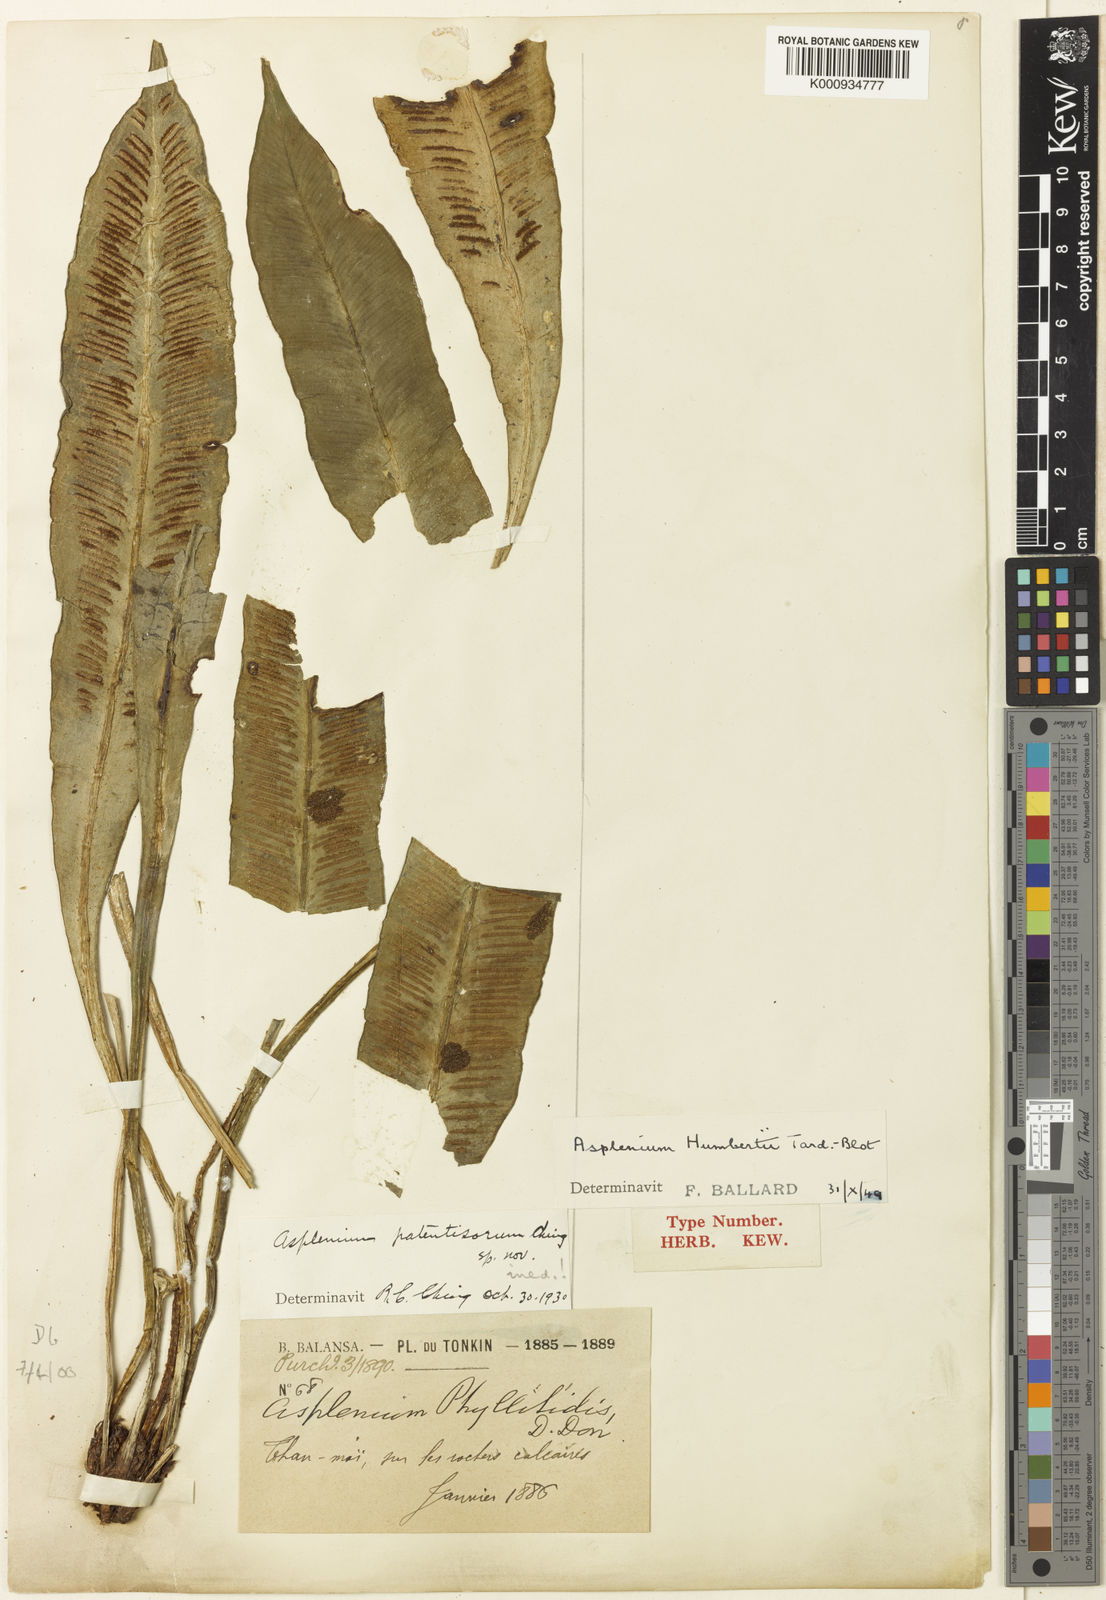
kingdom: Plantae
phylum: Tracheophyta
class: Polypodiopsida
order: Polypodiales
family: Aspleniaceae
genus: Asplenium
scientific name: Asplenium humbertii
